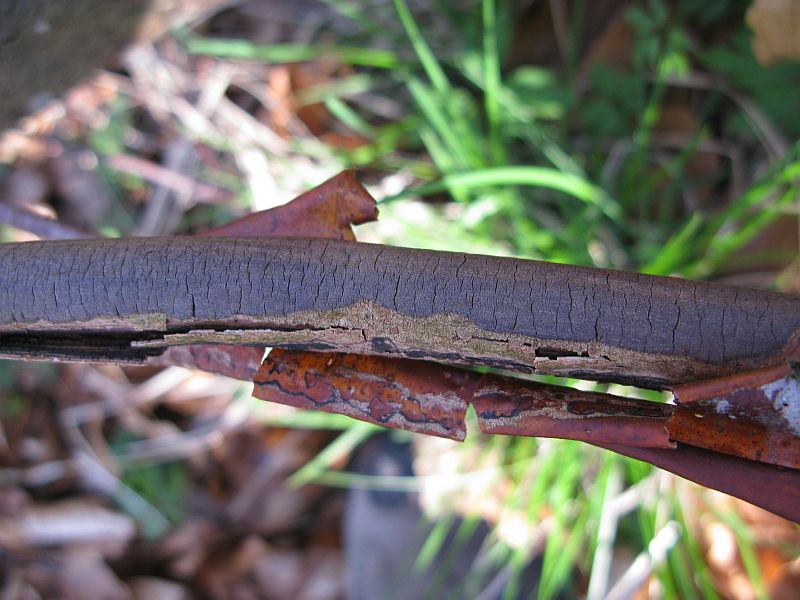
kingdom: Fungi
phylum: Ascomycota
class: Sordariomycetes
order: Xylariales
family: Diatrypaceae
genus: Diatrype
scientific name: Diatrype decorticata
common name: barksprænger-kulskorpe
